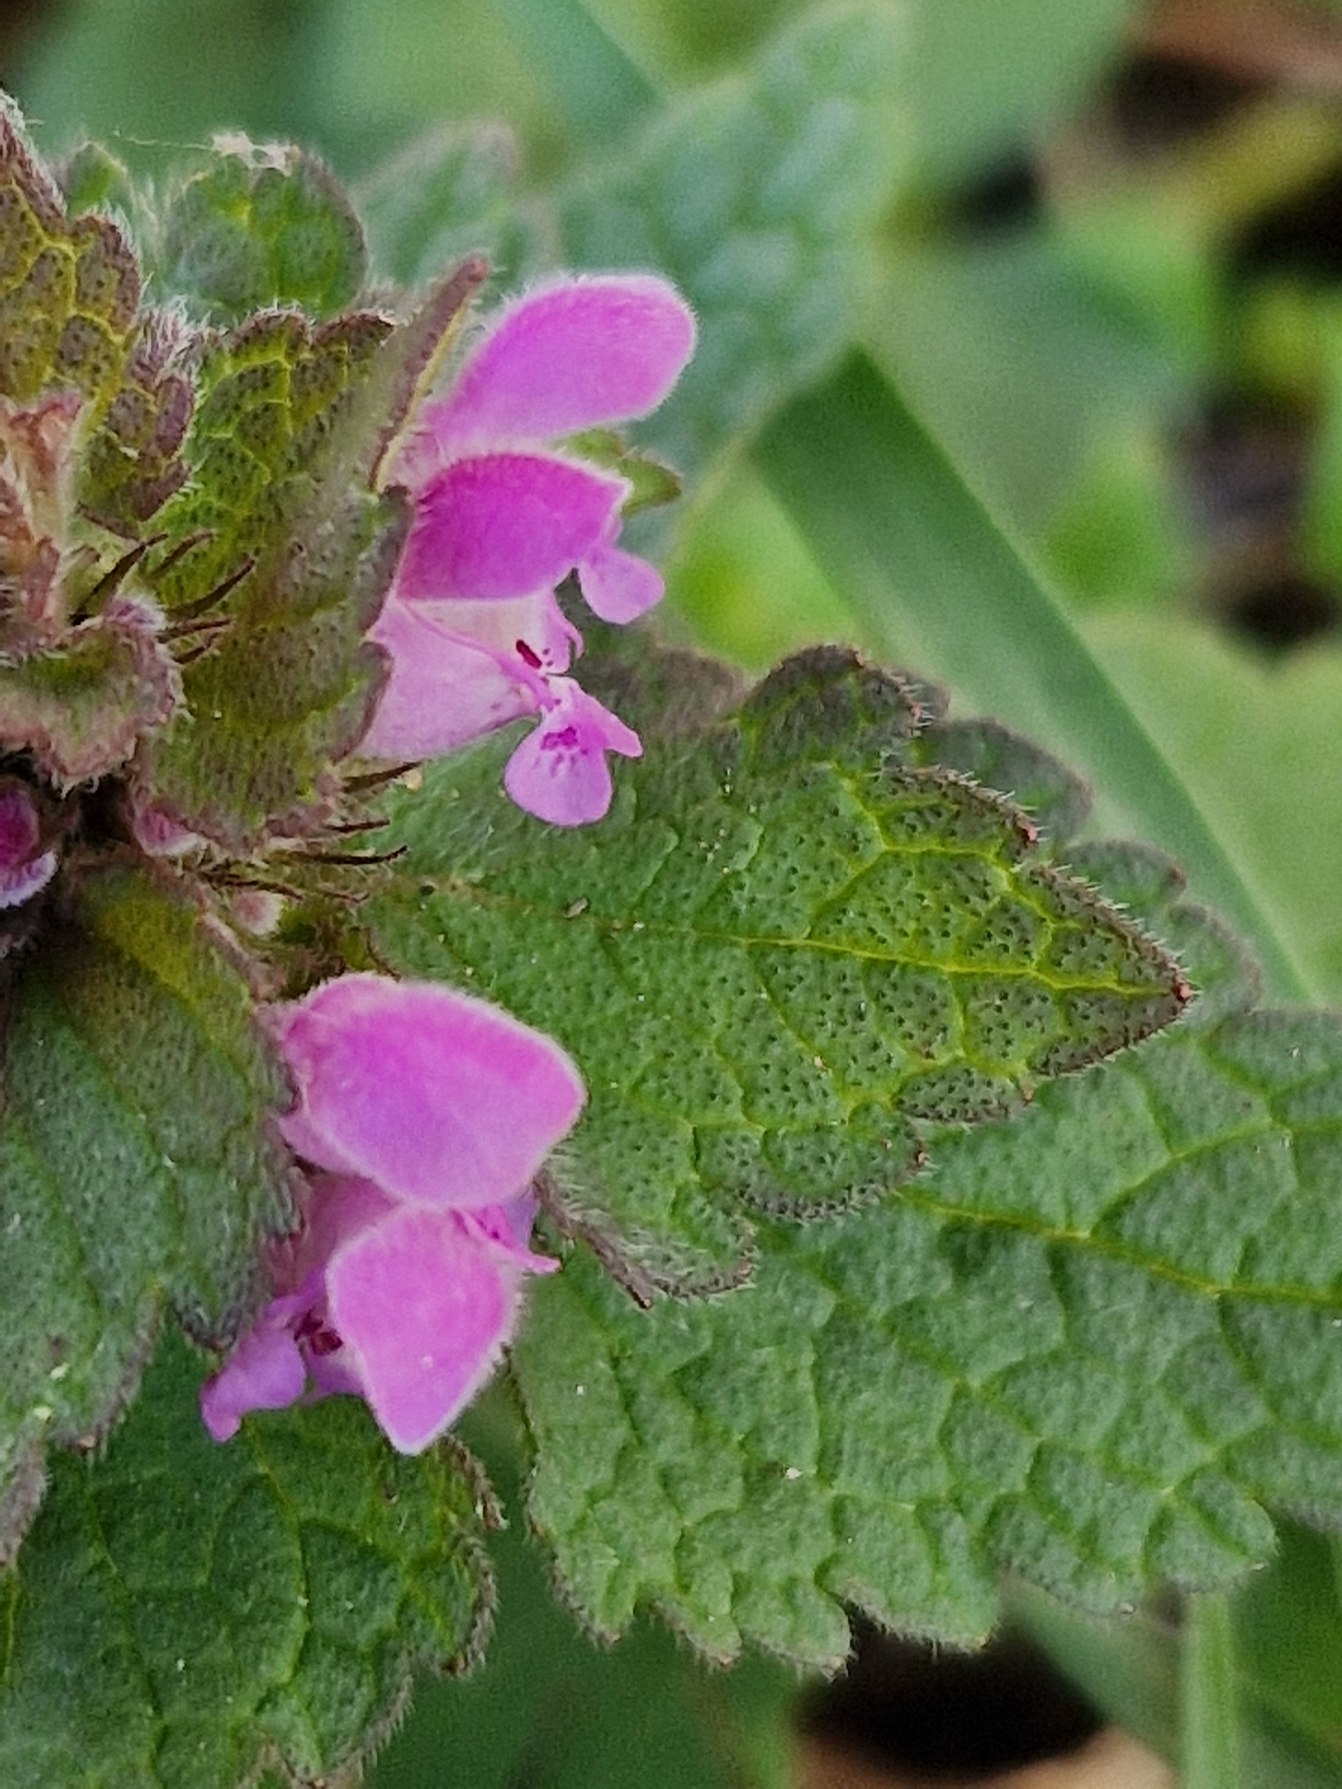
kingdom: Plantae
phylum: Tracheophyta
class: Magnoliopsida
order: Lamiales
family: Lamiaceae
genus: Lamium
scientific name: Lamium purpureum
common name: Rød tvetand
